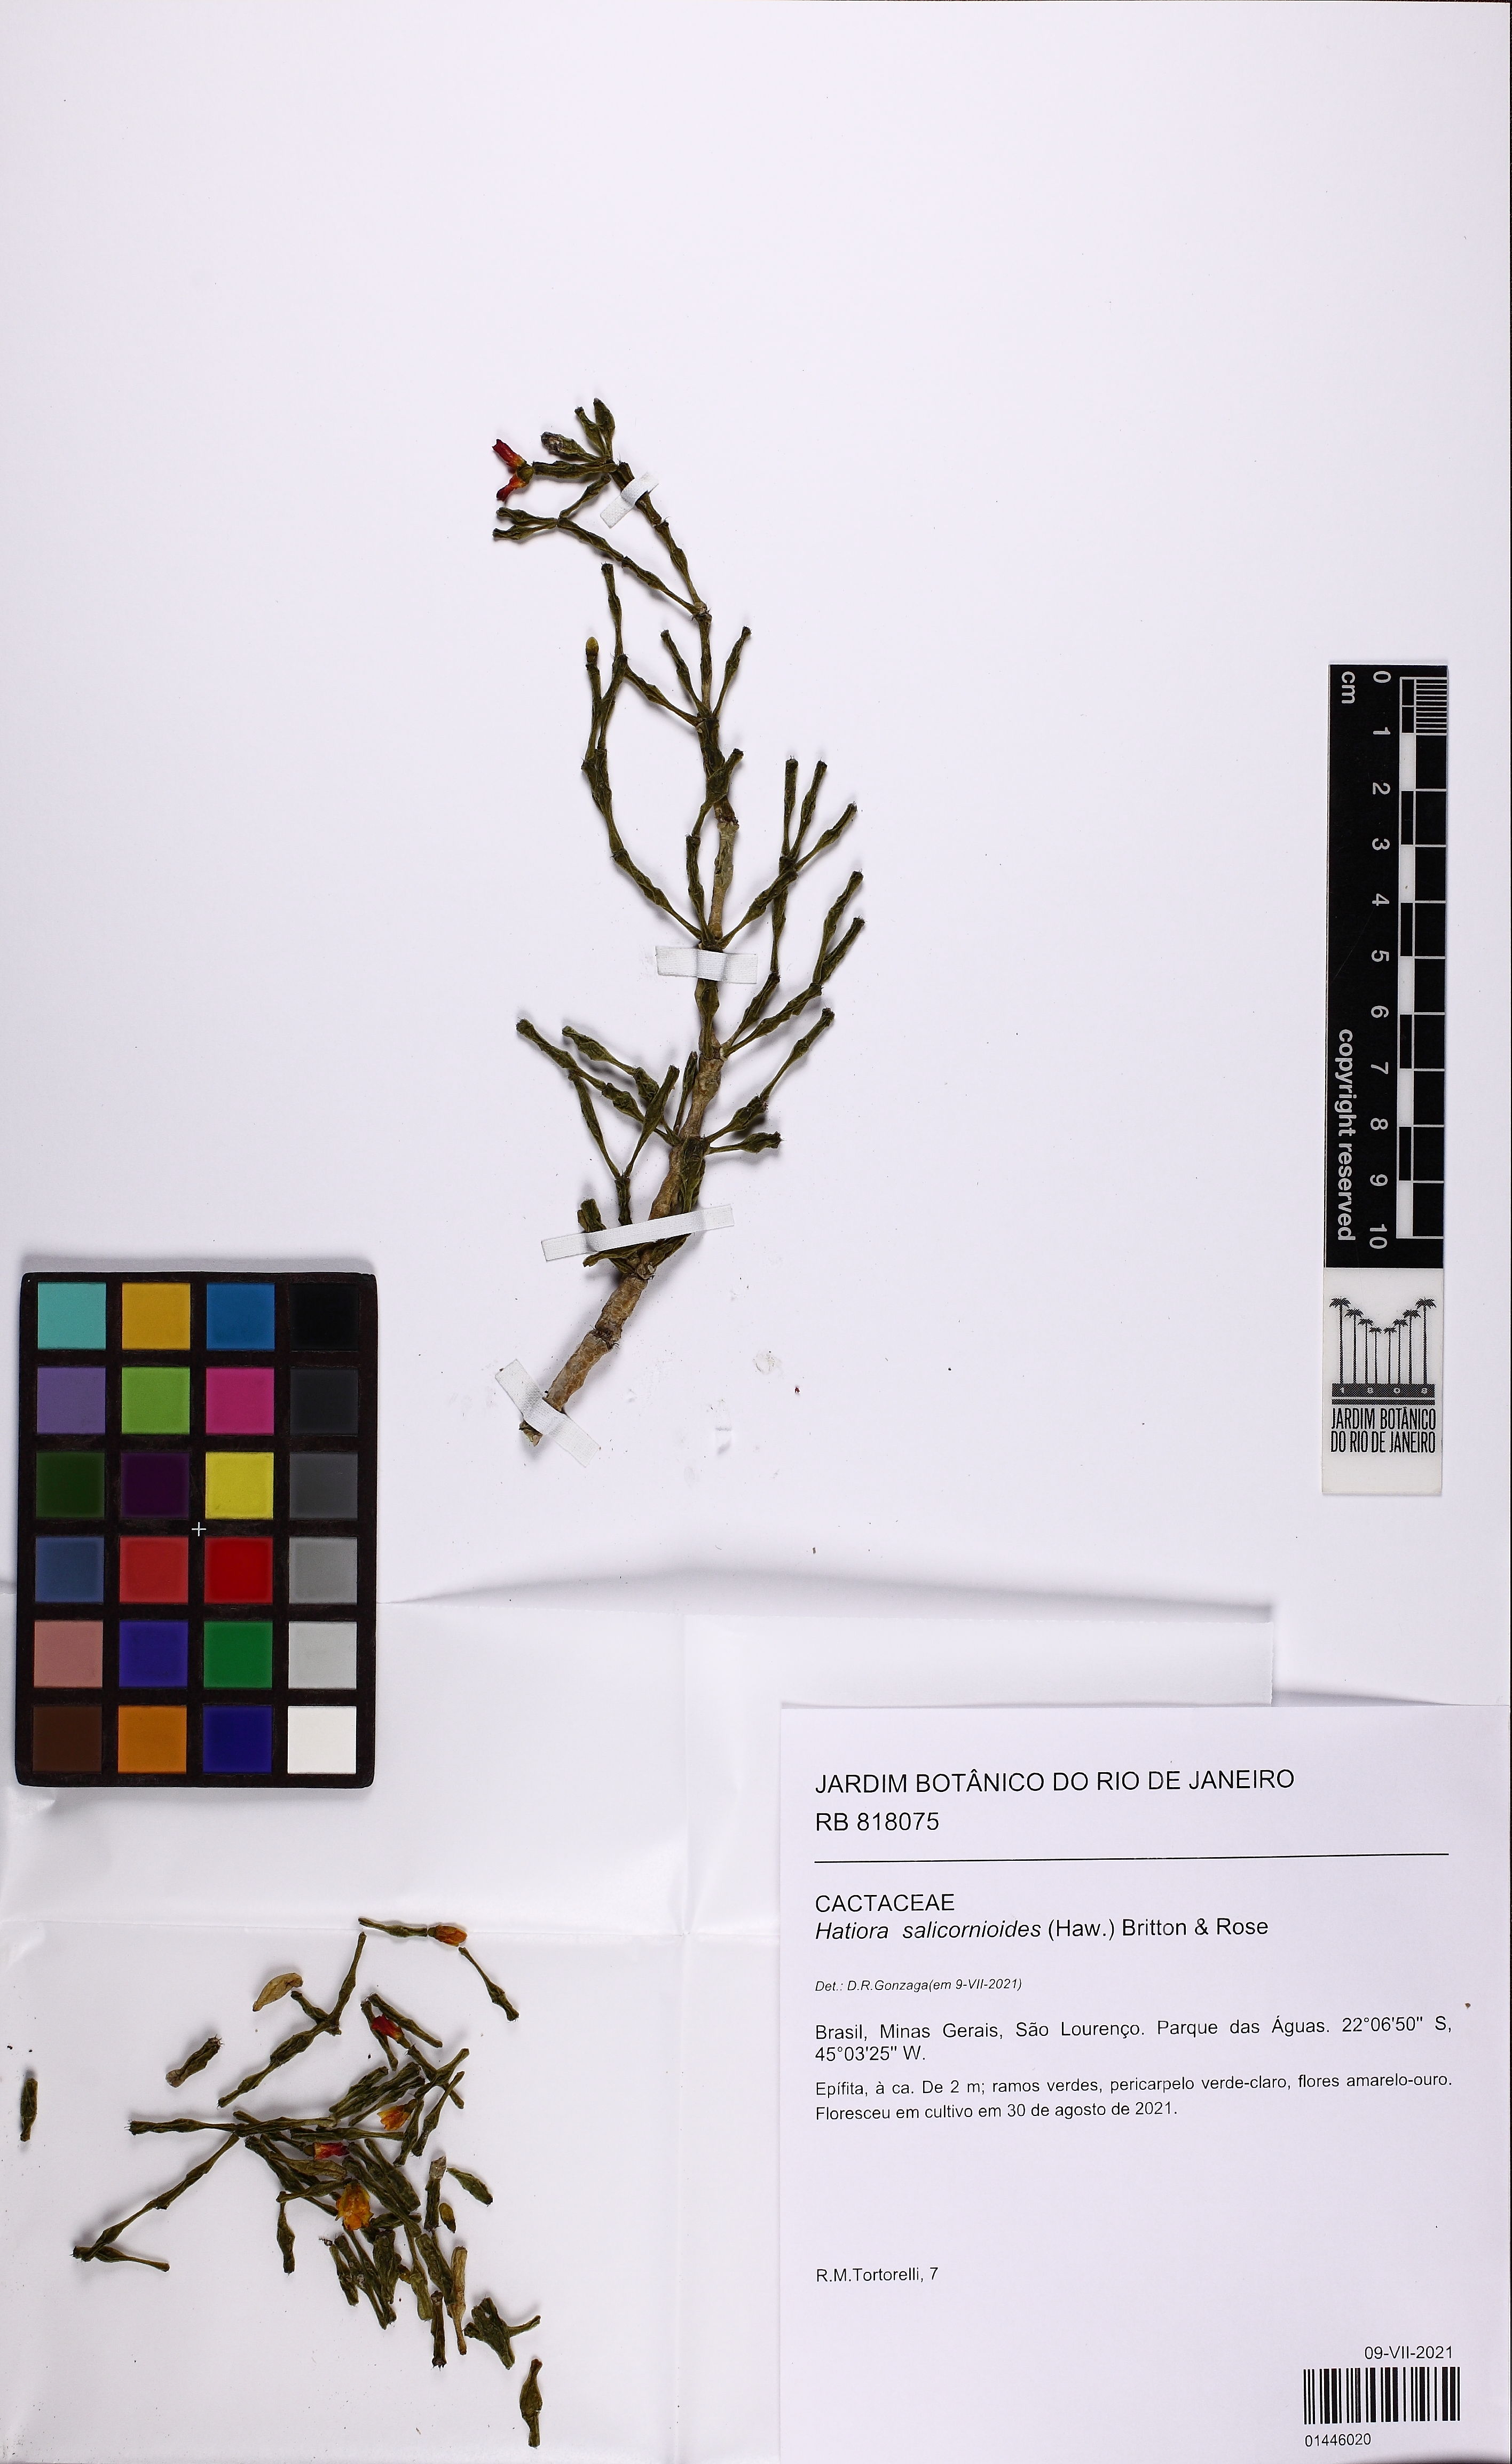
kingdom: Plantae
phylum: Tracheophyta
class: Magnoliopsida
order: Caryophyllales
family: Cactaceae
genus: Hatiora
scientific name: Hatiora salicornioides
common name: Dancing-bones
